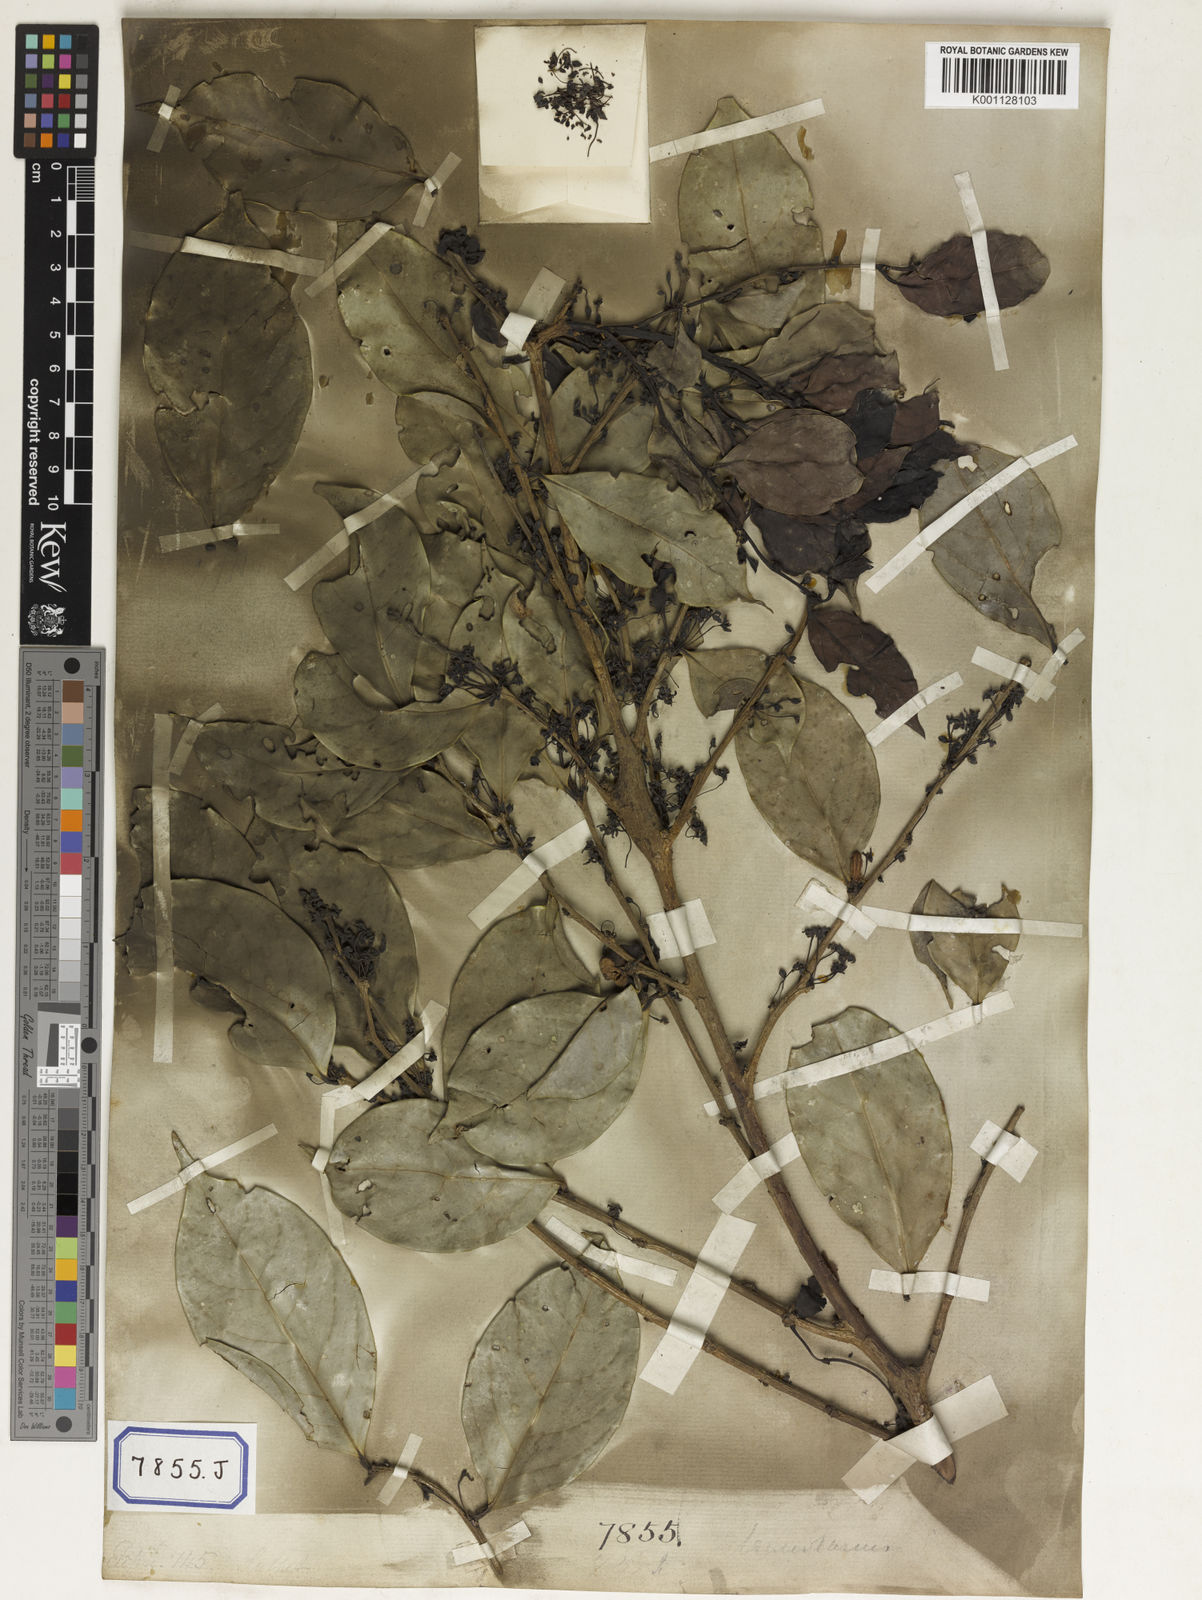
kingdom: Plantae
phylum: Tracheophyta
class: Magnoliopsida
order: Malpighiales
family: Euphorbiaceae
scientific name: Euphorbiaceae
